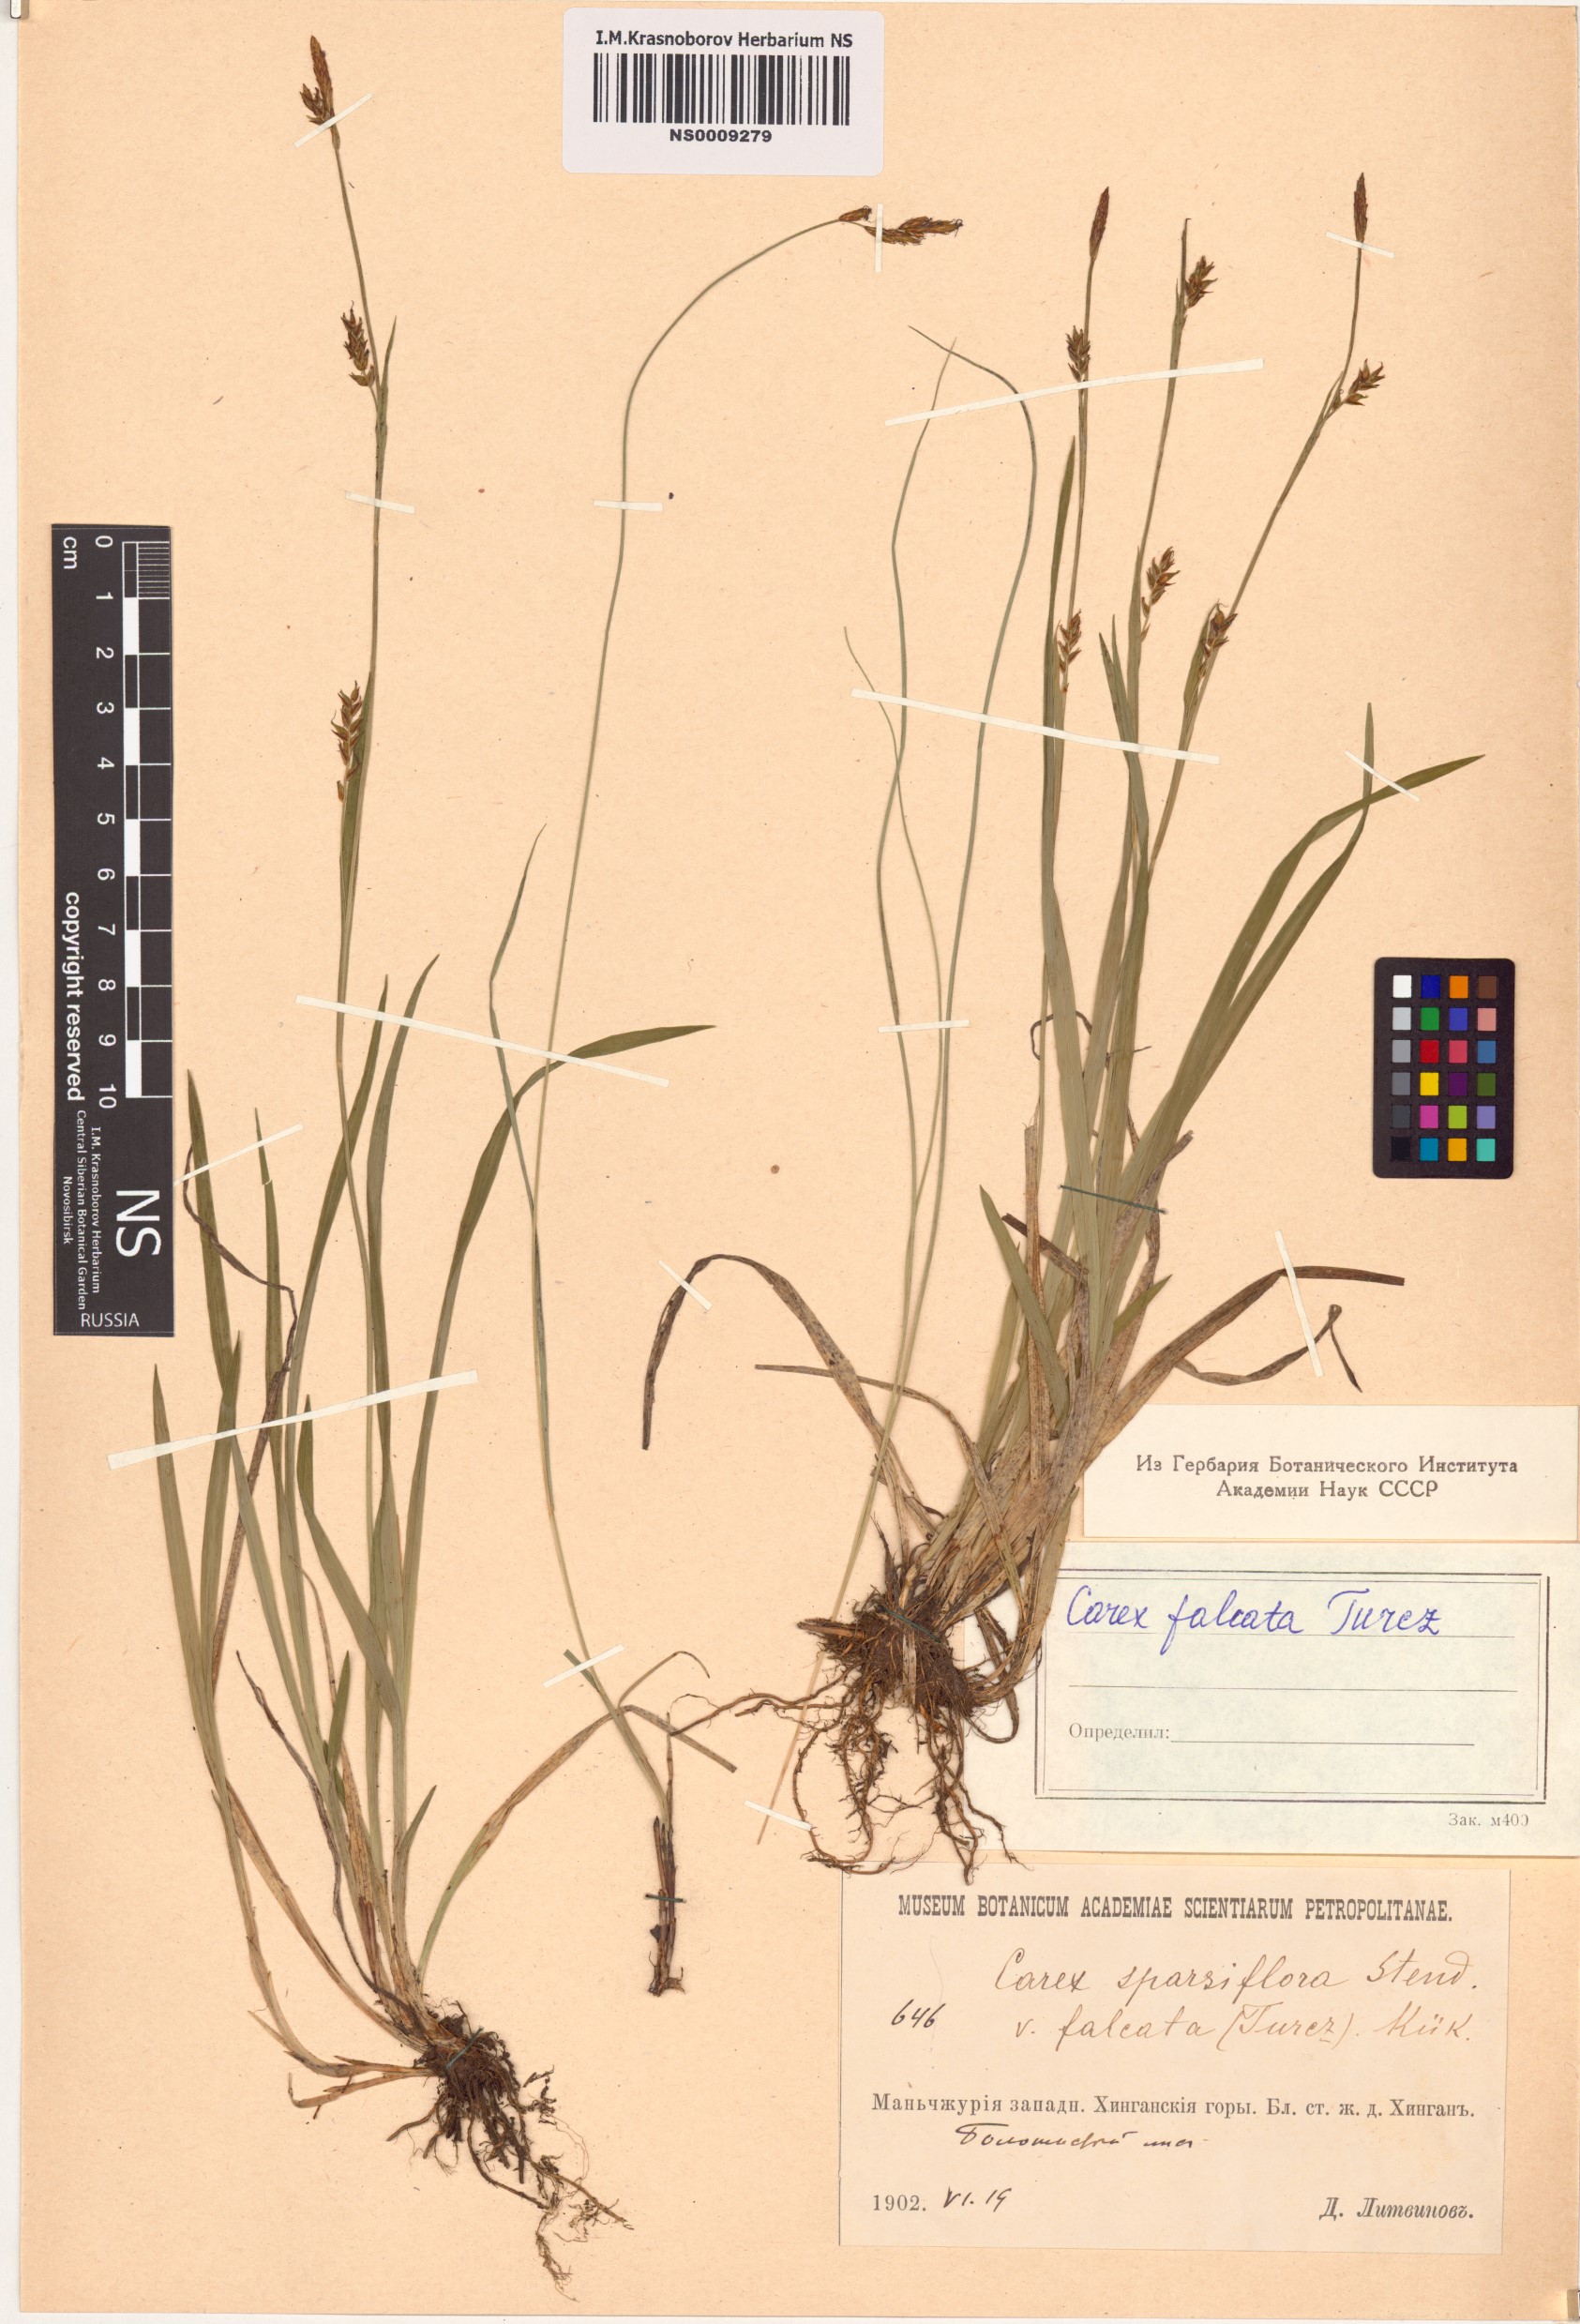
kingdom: Plantae
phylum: Tracheophyta
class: Liliopsida
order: Poales
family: Cyperaceae
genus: Carex
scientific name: Carex vaginata
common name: Sheathed sedge
